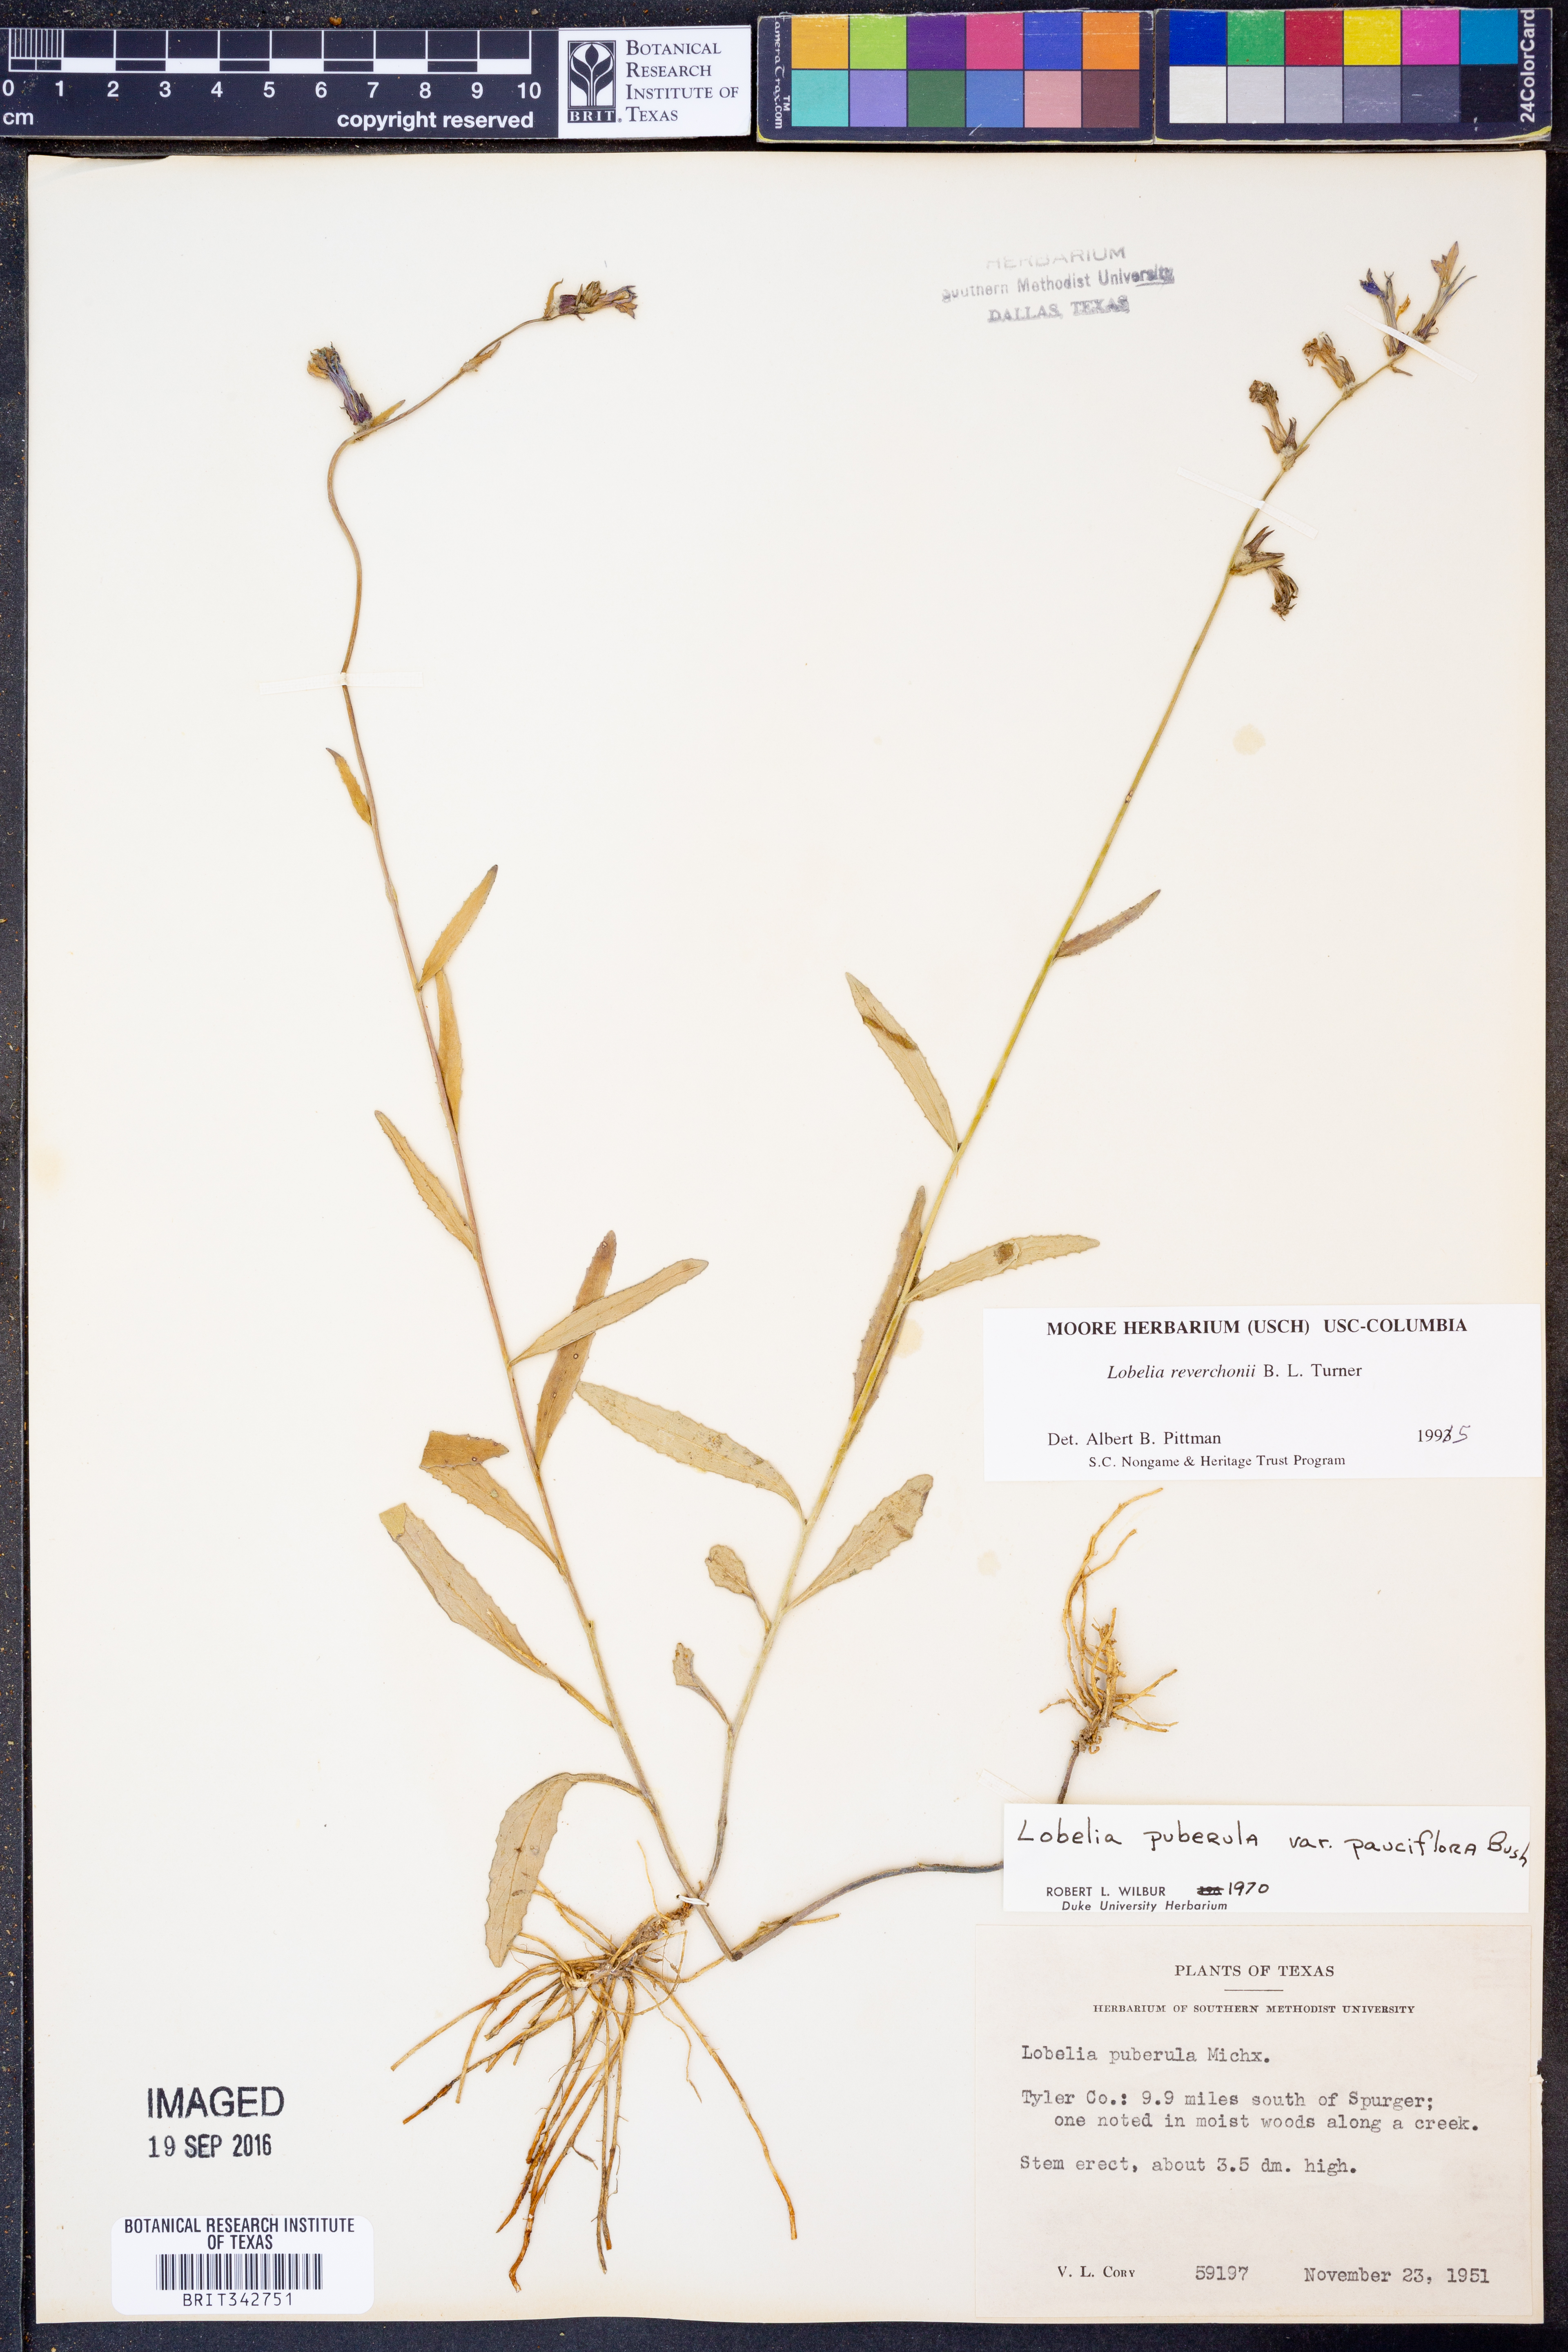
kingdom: Plantae
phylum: Tracheophyta
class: Magnoliopsida
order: Asterales
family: Campanulaceae
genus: Lobelia
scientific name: Lobelia reverchonii
